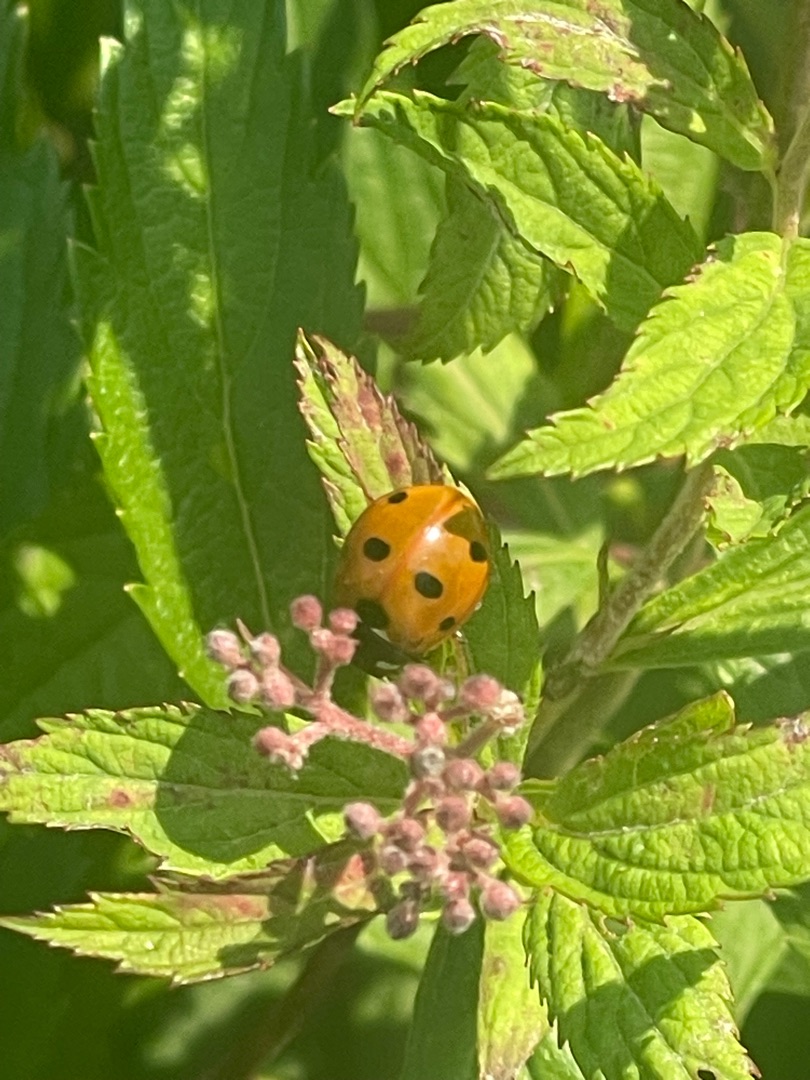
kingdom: Animalia
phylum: Arthropoda
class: Insecta
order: Coleoptera
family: Coccinellidae
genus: Coccinella
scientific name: Coccinella septempunctata
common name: Syvplettet mariehøne
